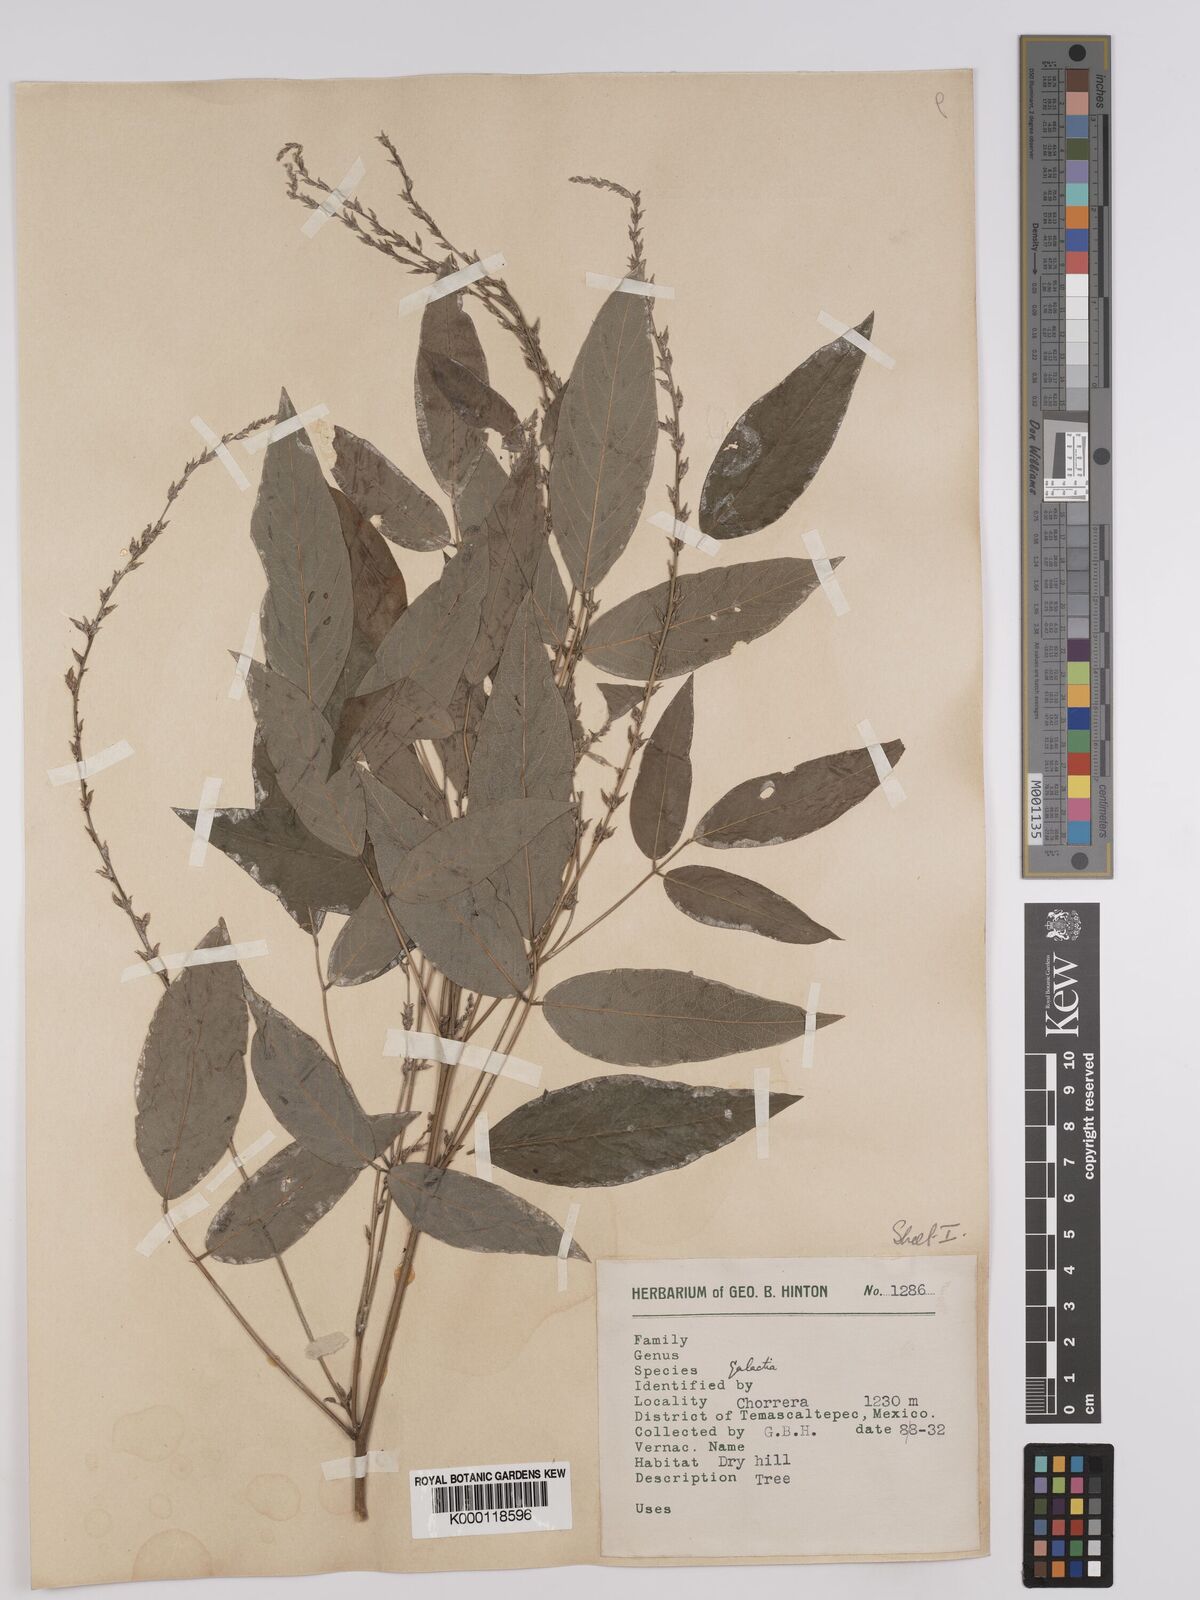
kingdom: Plantae
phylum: Tracheophyta
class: Magnoliopsida
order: Fabales
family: Fabaceae
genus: Galactia
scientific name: Galactia incana
